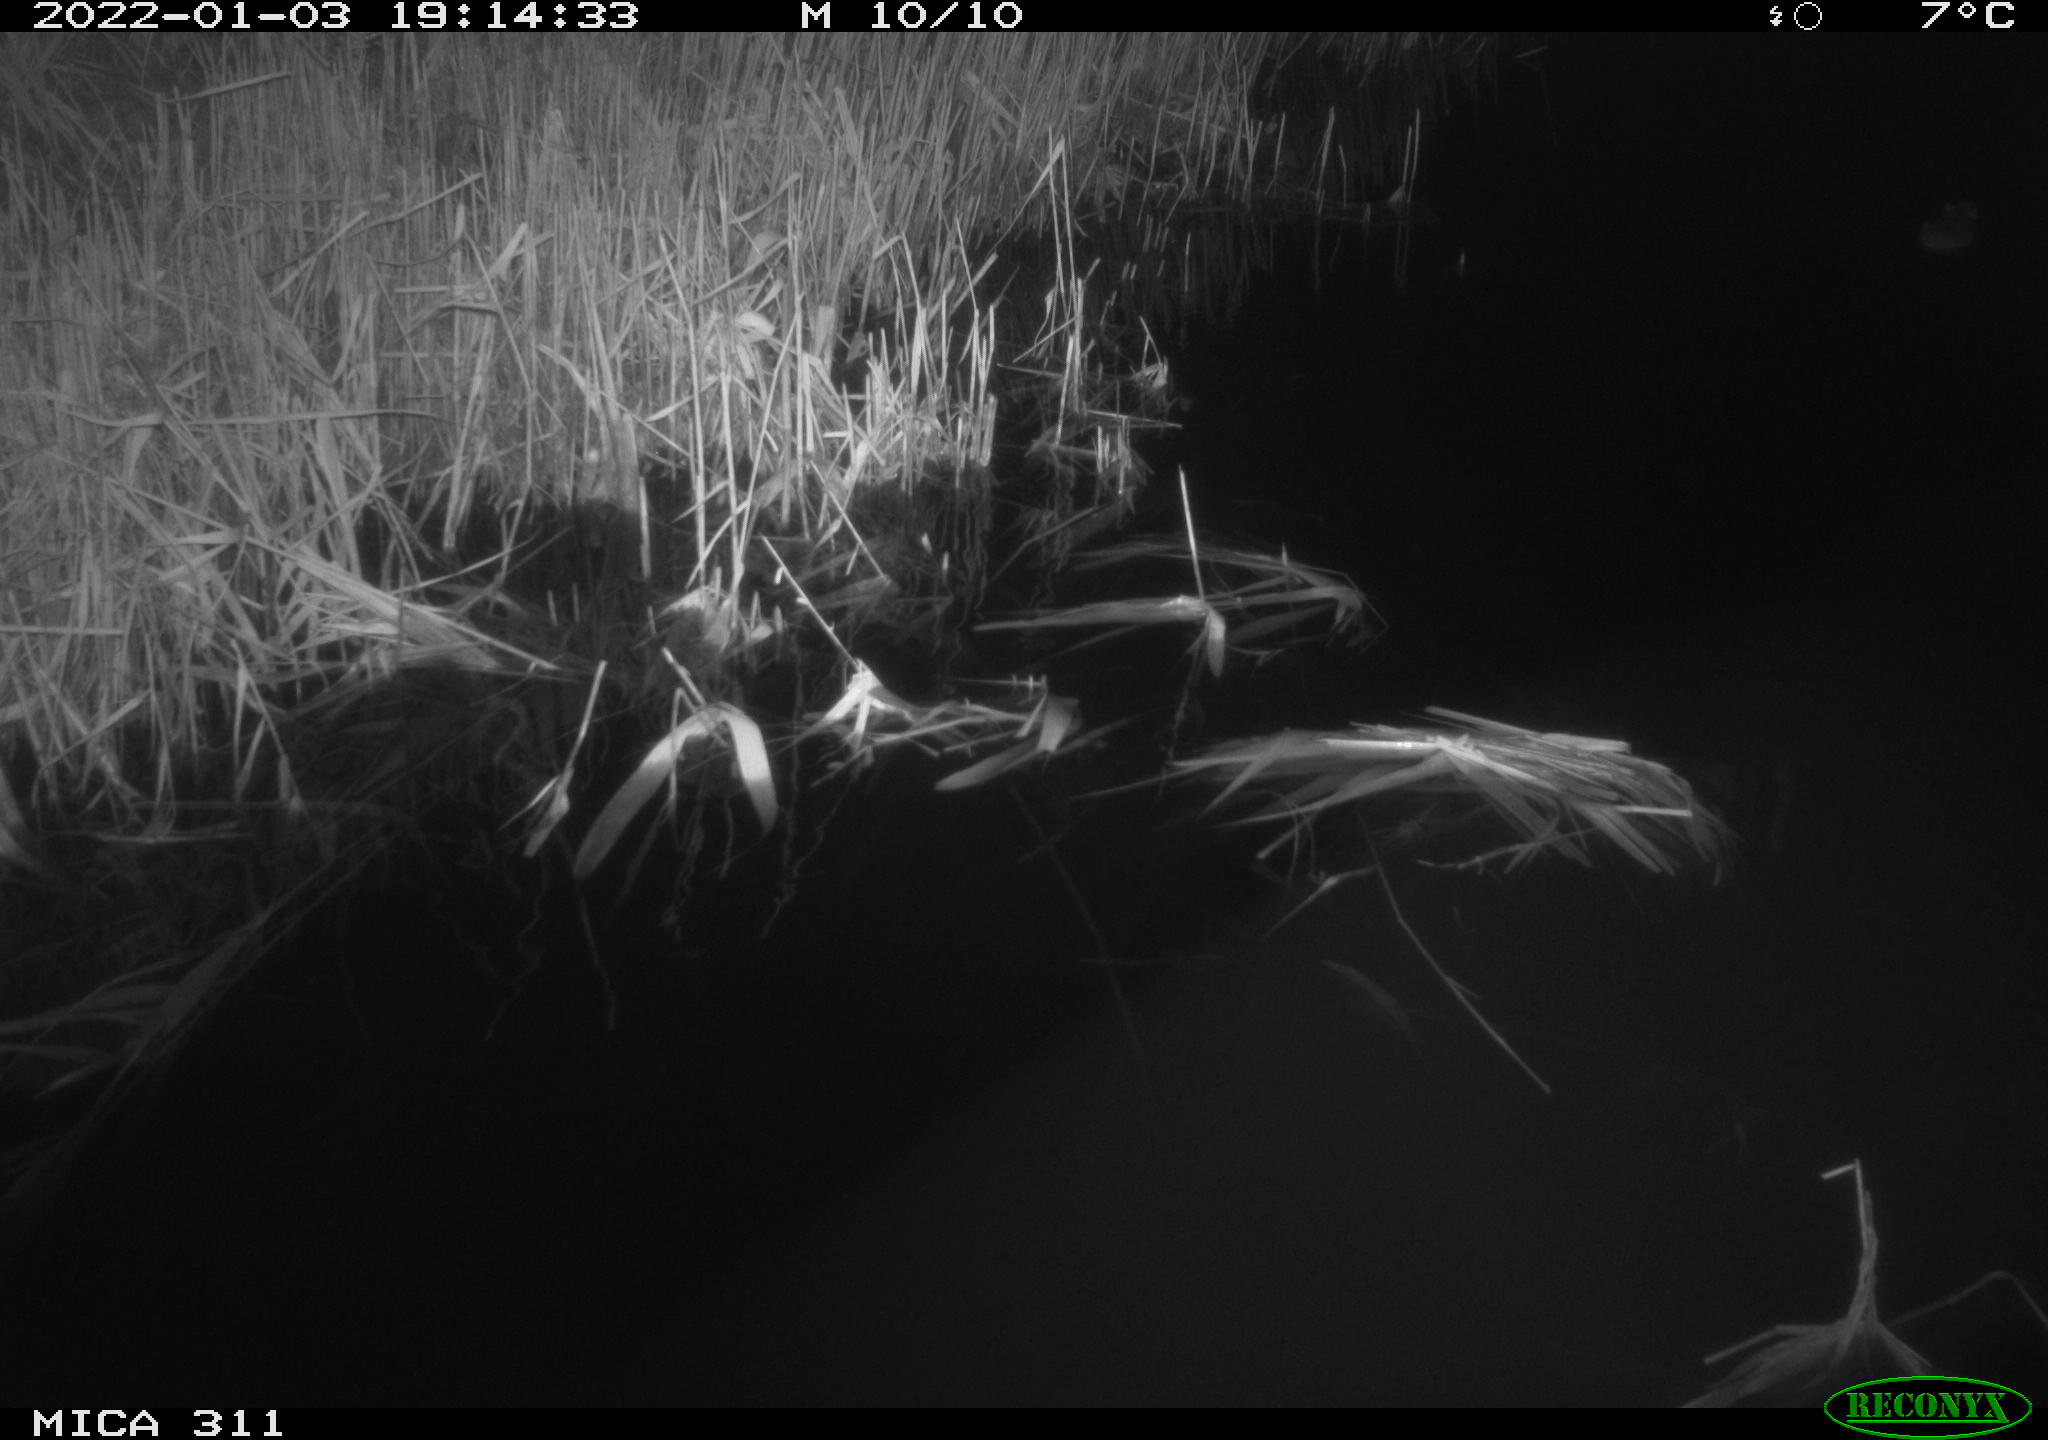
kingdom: Animalia
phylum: Chordata
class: Mammalia
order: Rodentia
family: Muridae
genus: Rattus
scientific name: Rattus norvegicus
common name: Brown rat
